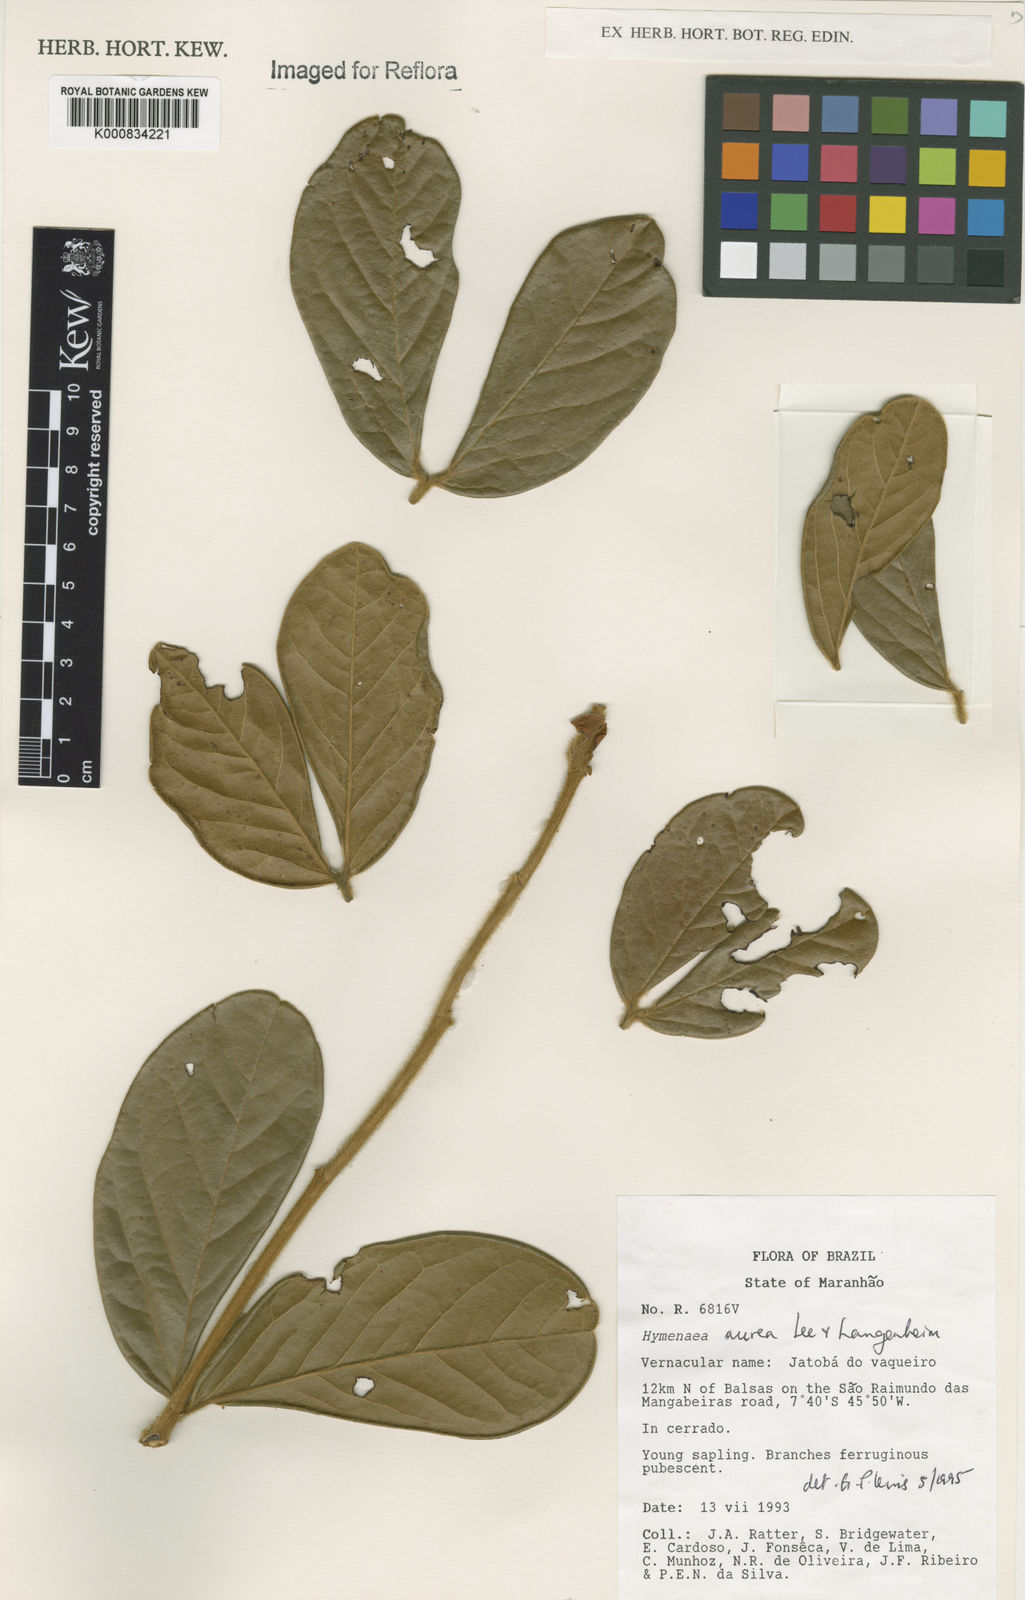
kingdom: Plantae
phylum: Tracheophyta
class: Magnoliopsida
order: Fabales
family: Fabaceae
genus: Hymenaea
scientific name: Hymenaea
